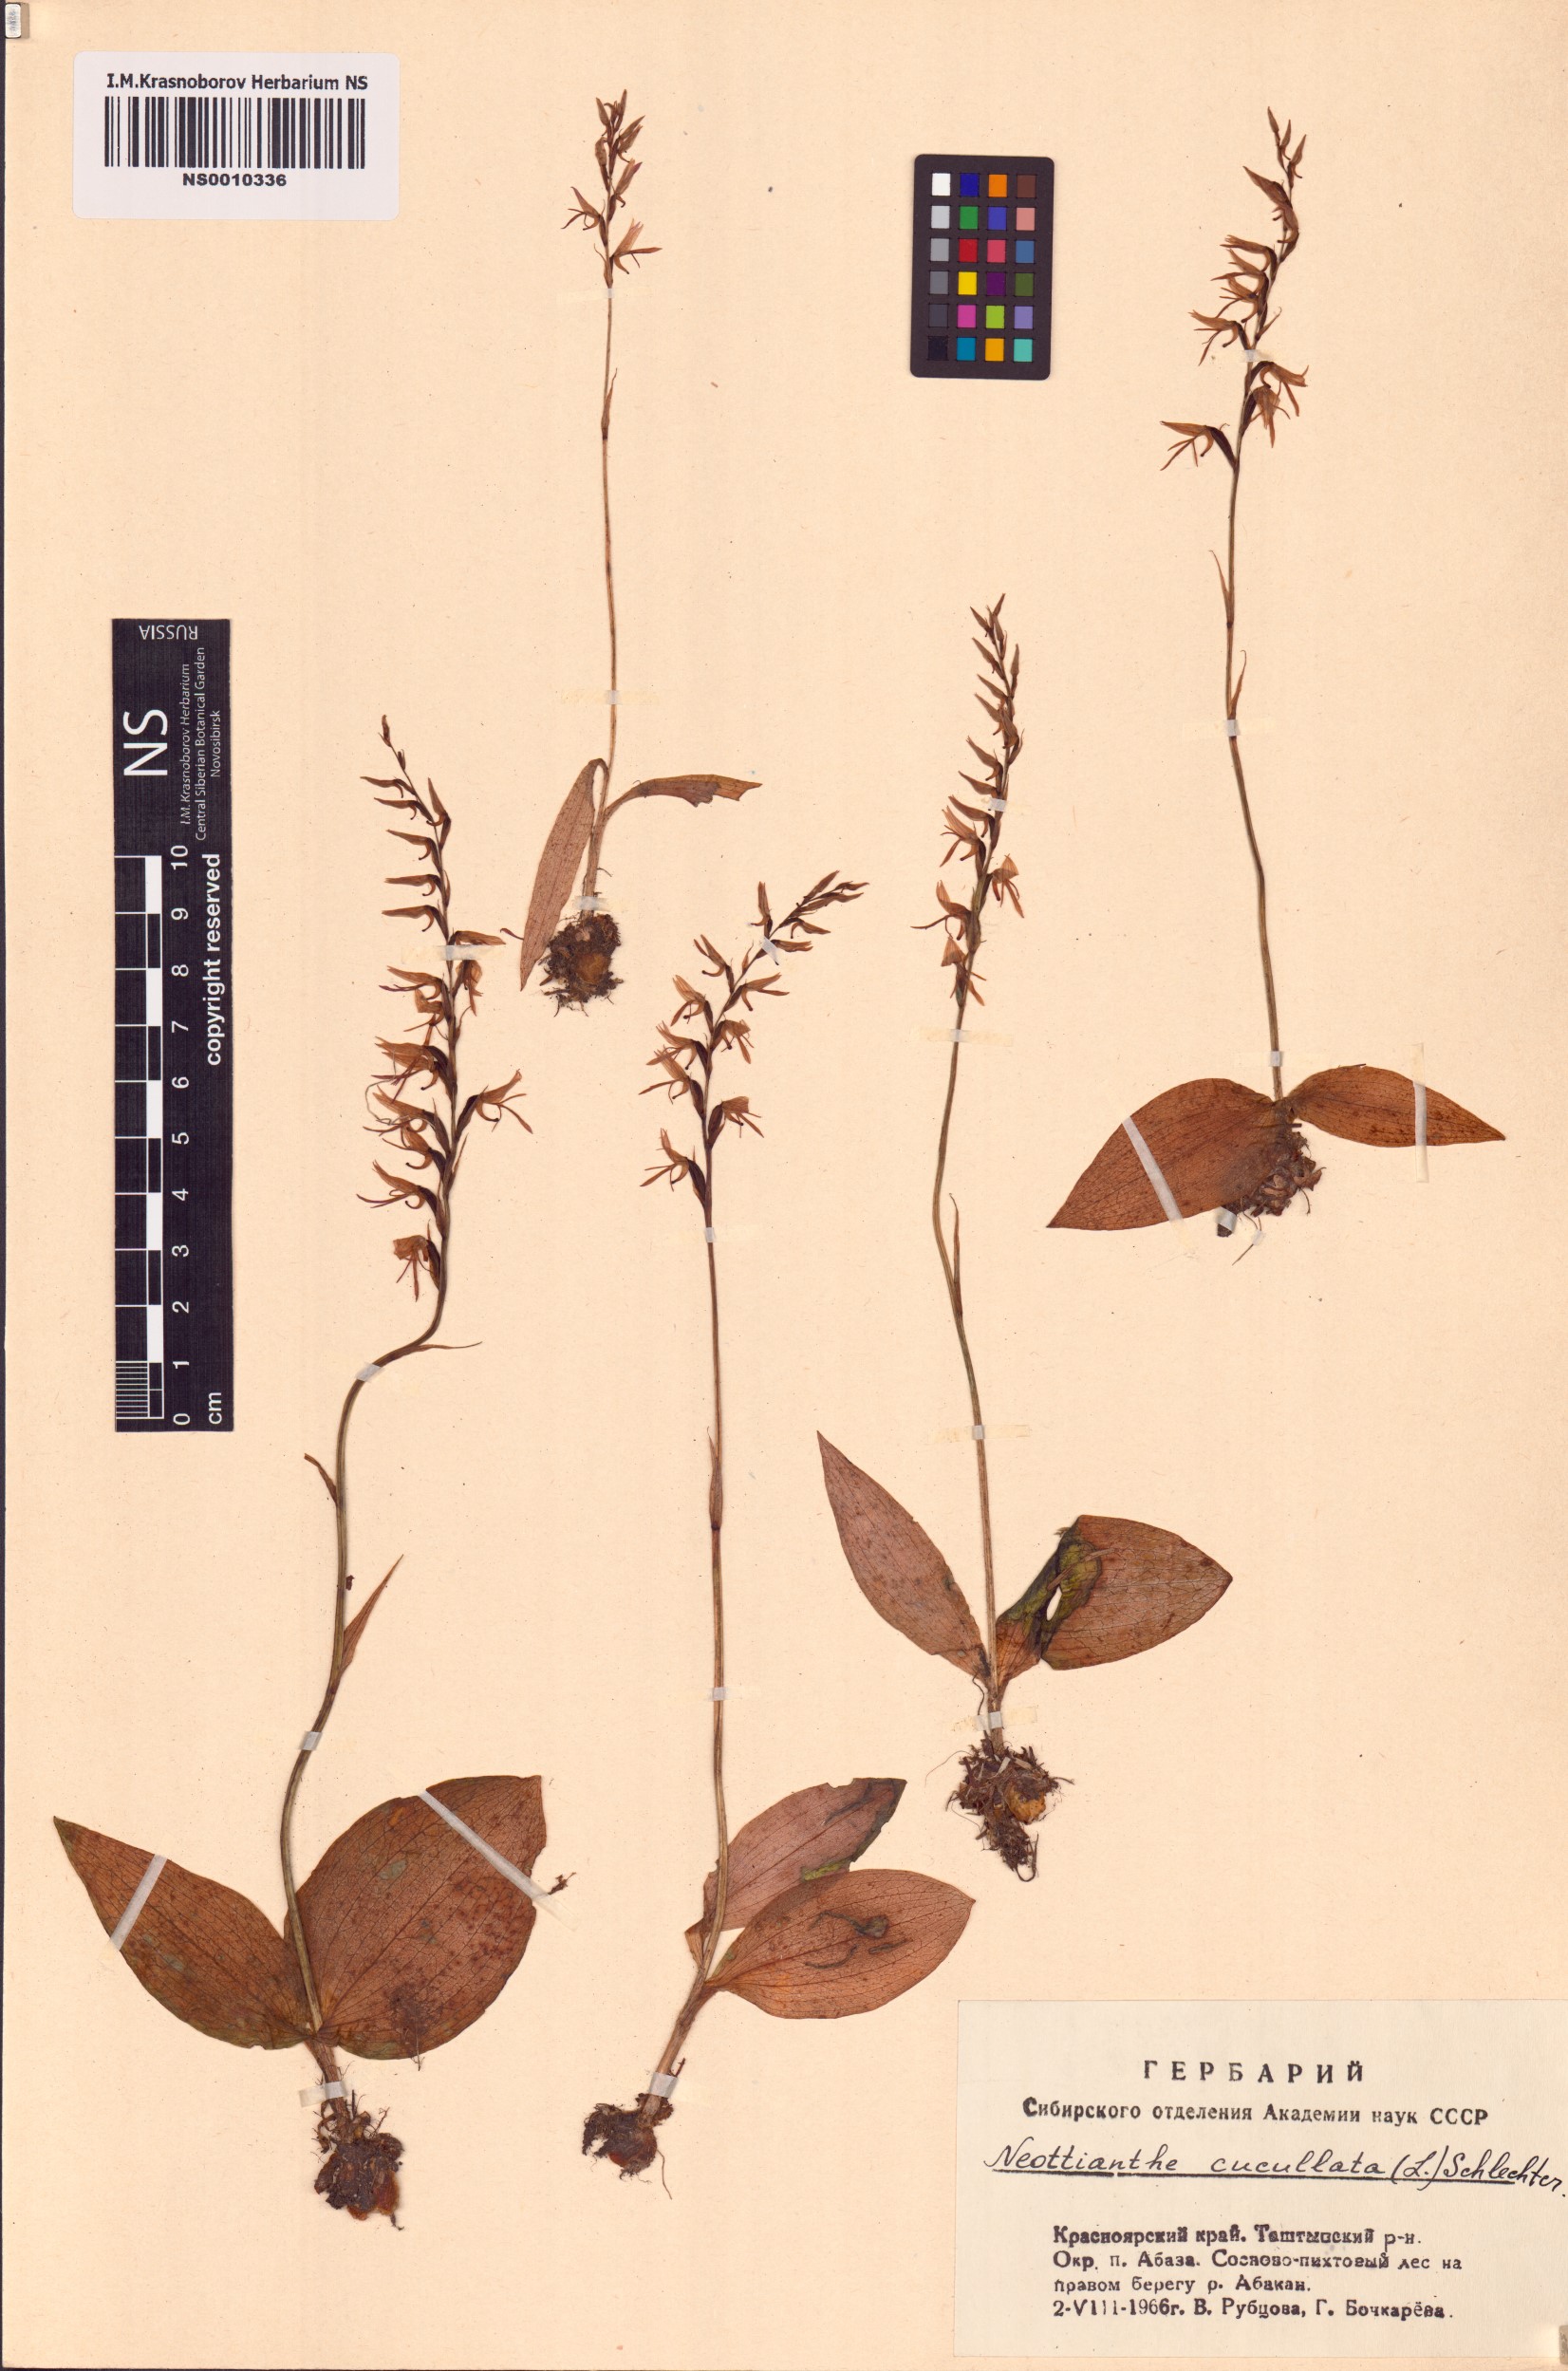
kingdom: Plantae
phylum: Tracheophyta
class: Liliopsida
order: Asparagales
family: Orchidaceae
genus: Hemipilia
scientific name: Hemipilia cucullata
